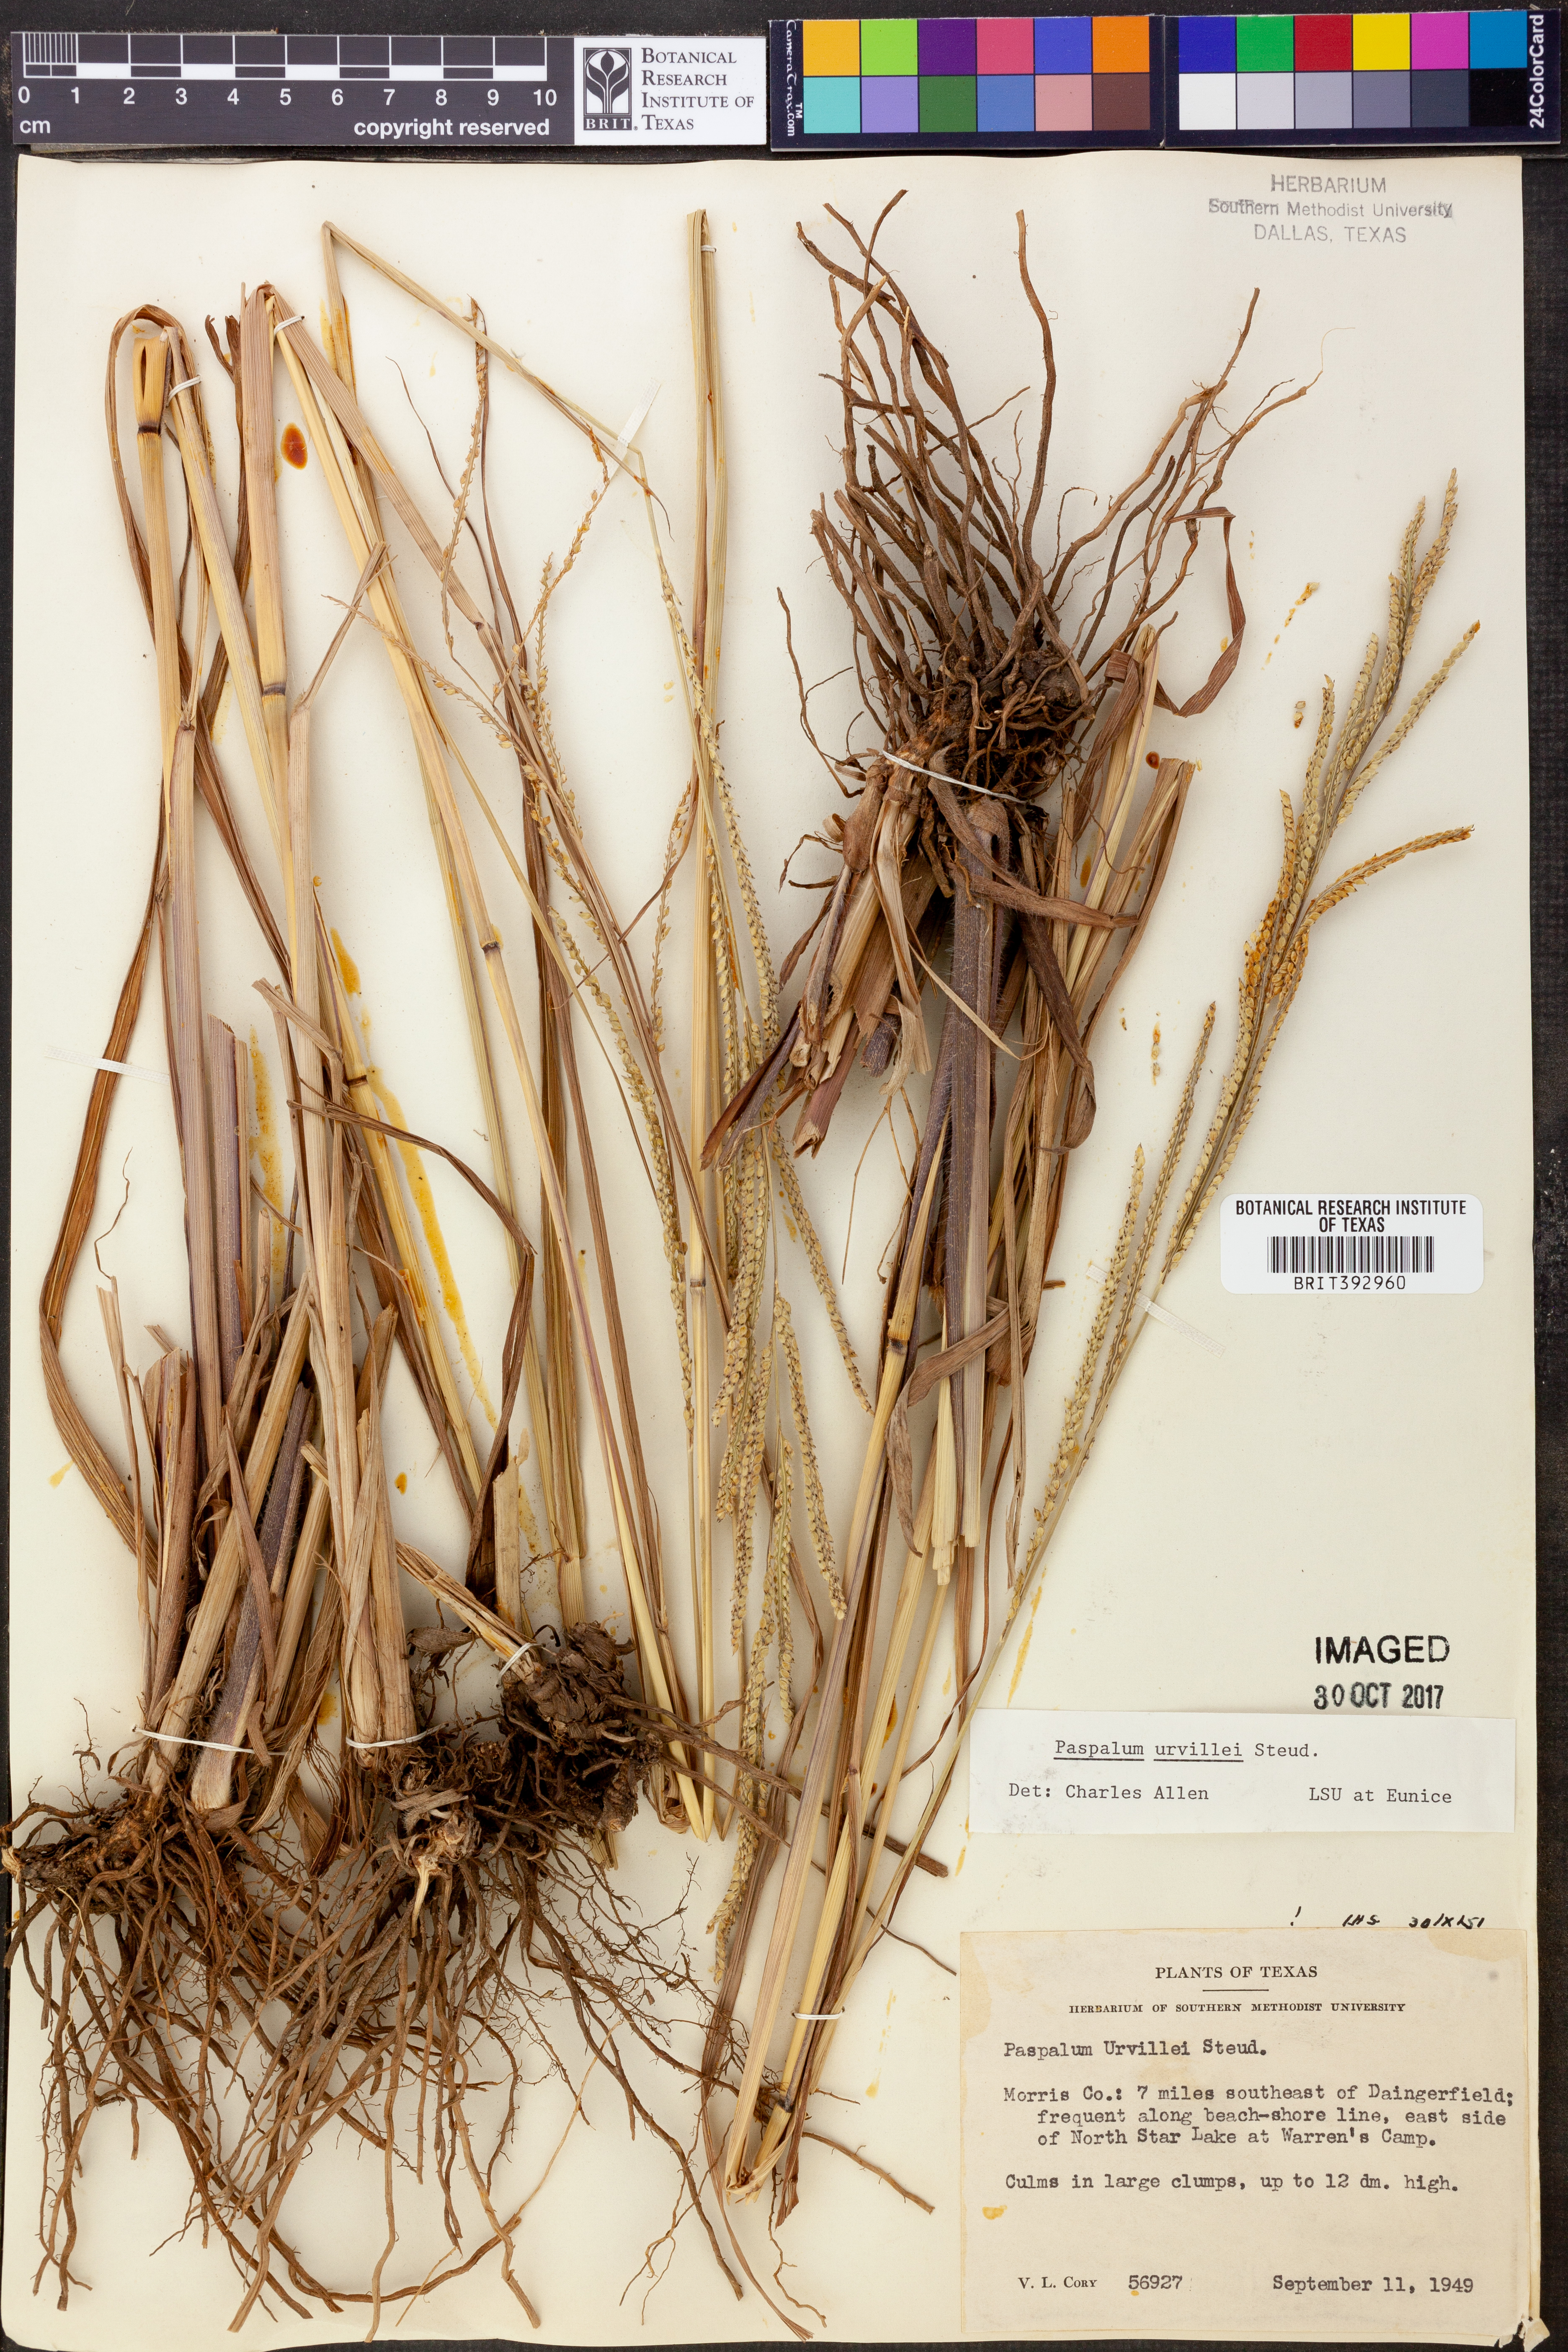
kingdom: Plantae
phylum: Tracheophyta
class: Liliopsida
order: Poales
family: Poaceae
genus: Paspalum
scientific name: Paspalum urvillei
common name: Vasey's grass
